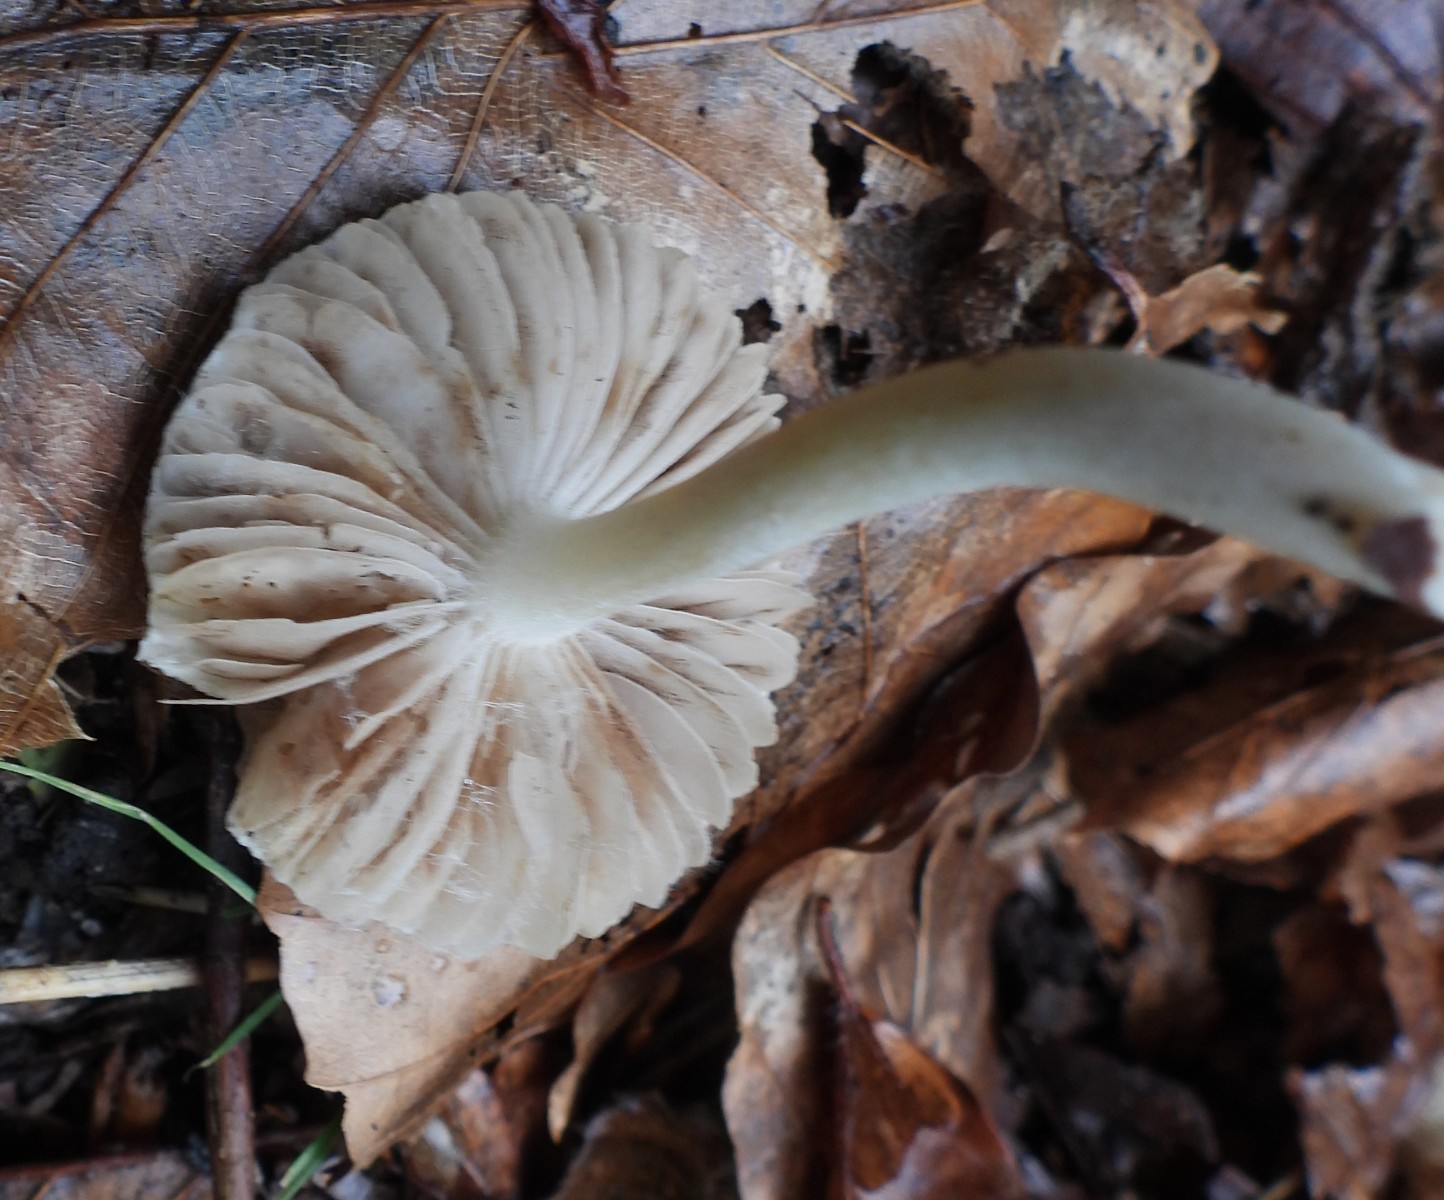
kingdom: Fungi
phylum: Basidiomycota
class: Agaricomycetes
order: Agaricales
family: Inocybaceae
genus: Inocybe
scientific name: Inocybe
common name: almindelig trævlhat
